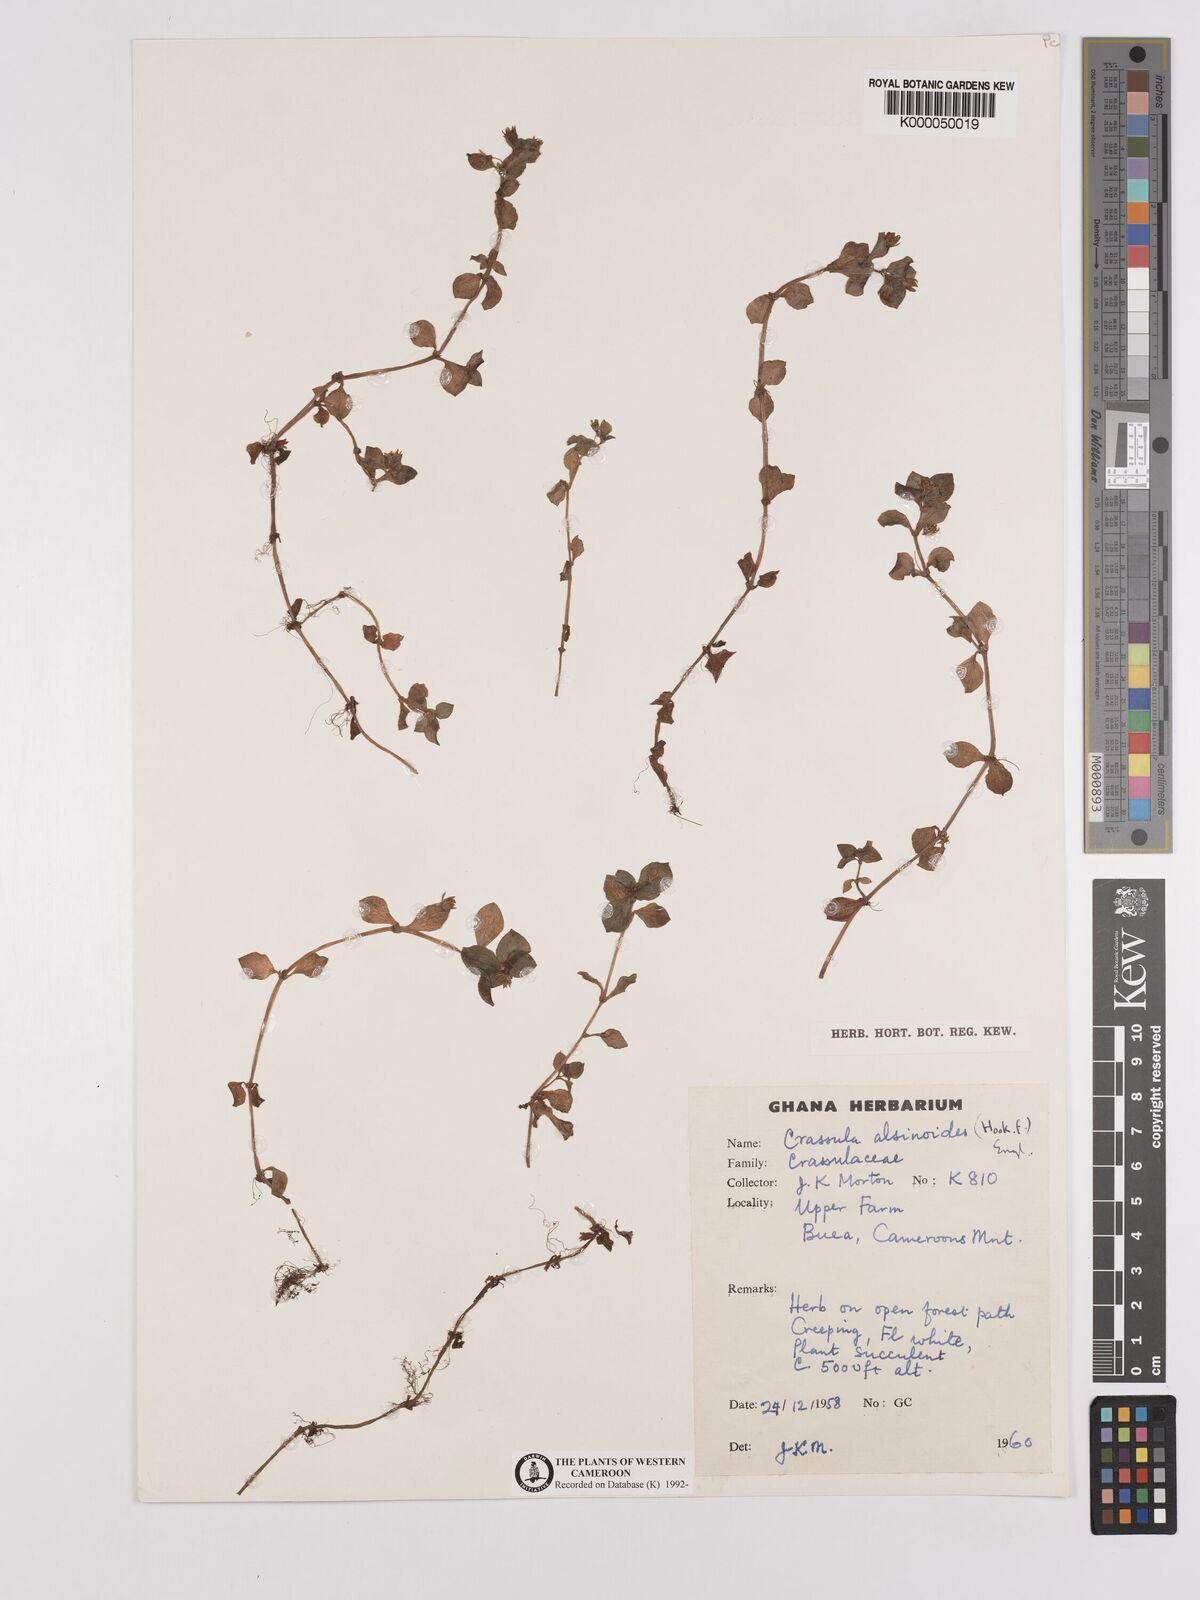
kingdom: Plantae
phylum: Tracheophyta
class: Magnoliopsida
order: Saxifragales
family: Crassulaceae
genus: Crassula
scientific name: Crassula alsinoides
